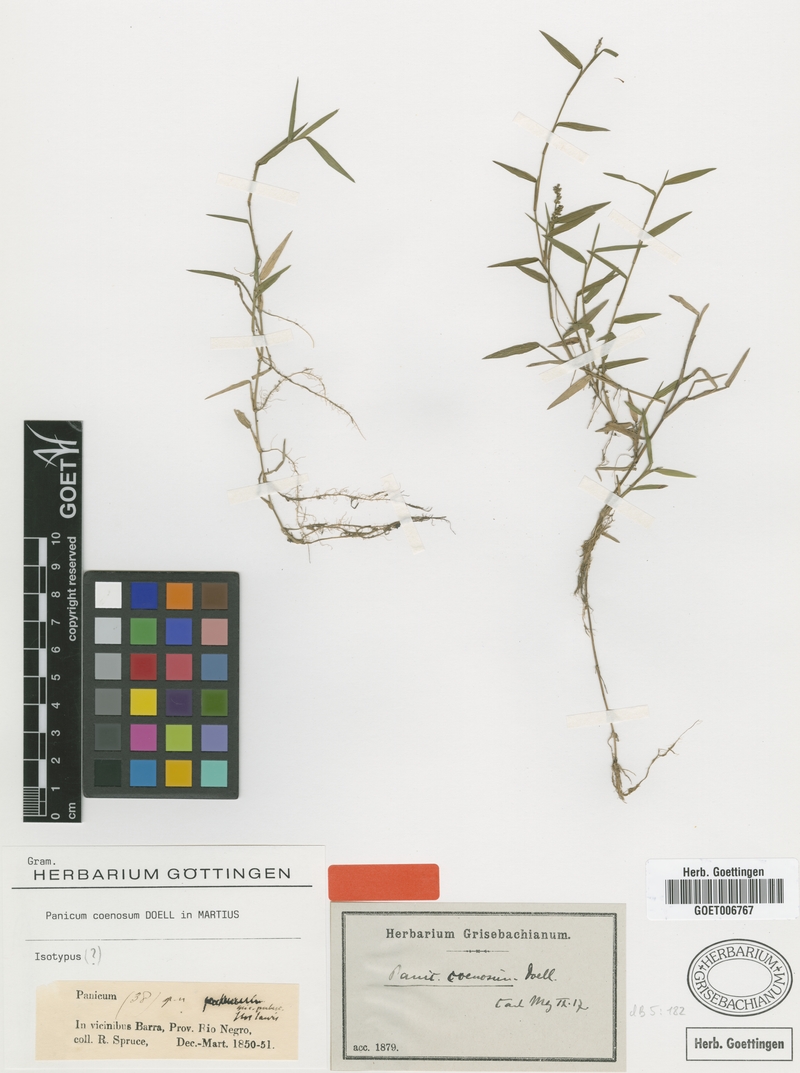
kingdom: Plantae
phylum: Tracheophyta
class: Liliopsida
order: Poales
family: Poaceae
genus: Rugoloa
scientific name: Rugoloa pilosa
